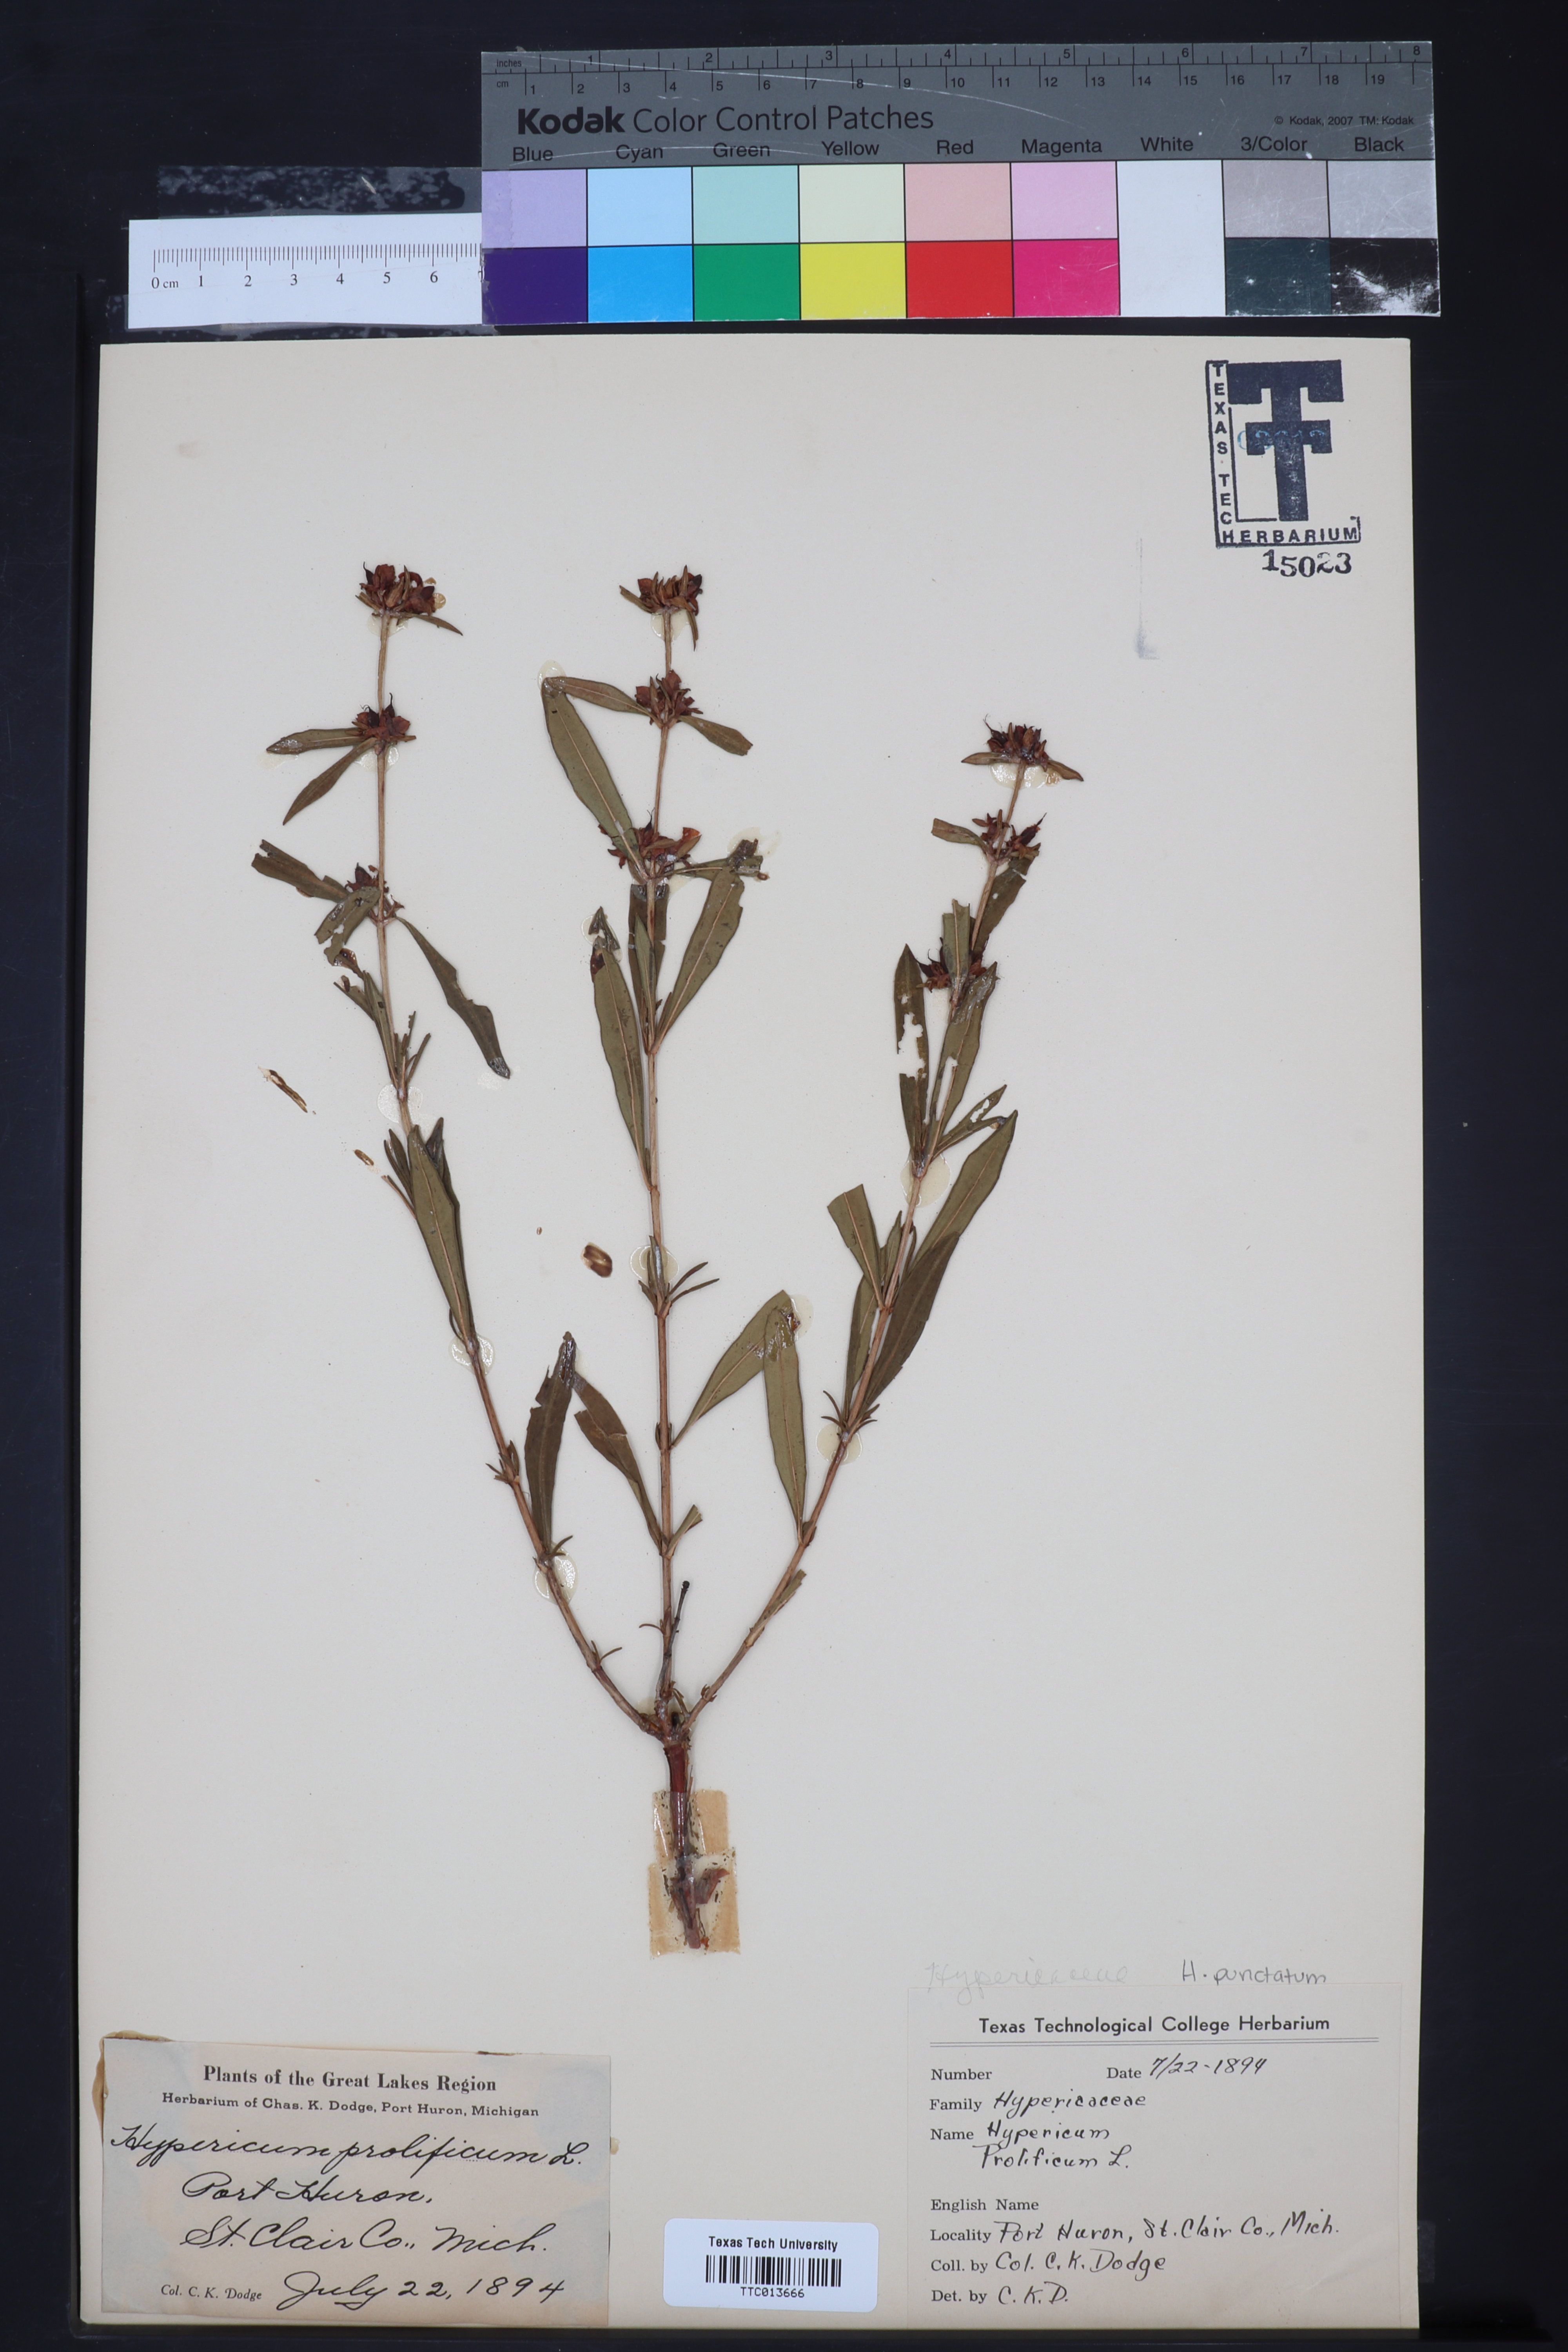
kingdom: Plantae
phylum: Tracheophyta
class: Magnoliopsida
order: Malpighiales
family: Hypericaceae
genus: Hypericum
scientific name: Hypericum prolificum
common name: Shrubby st. john's-wort
